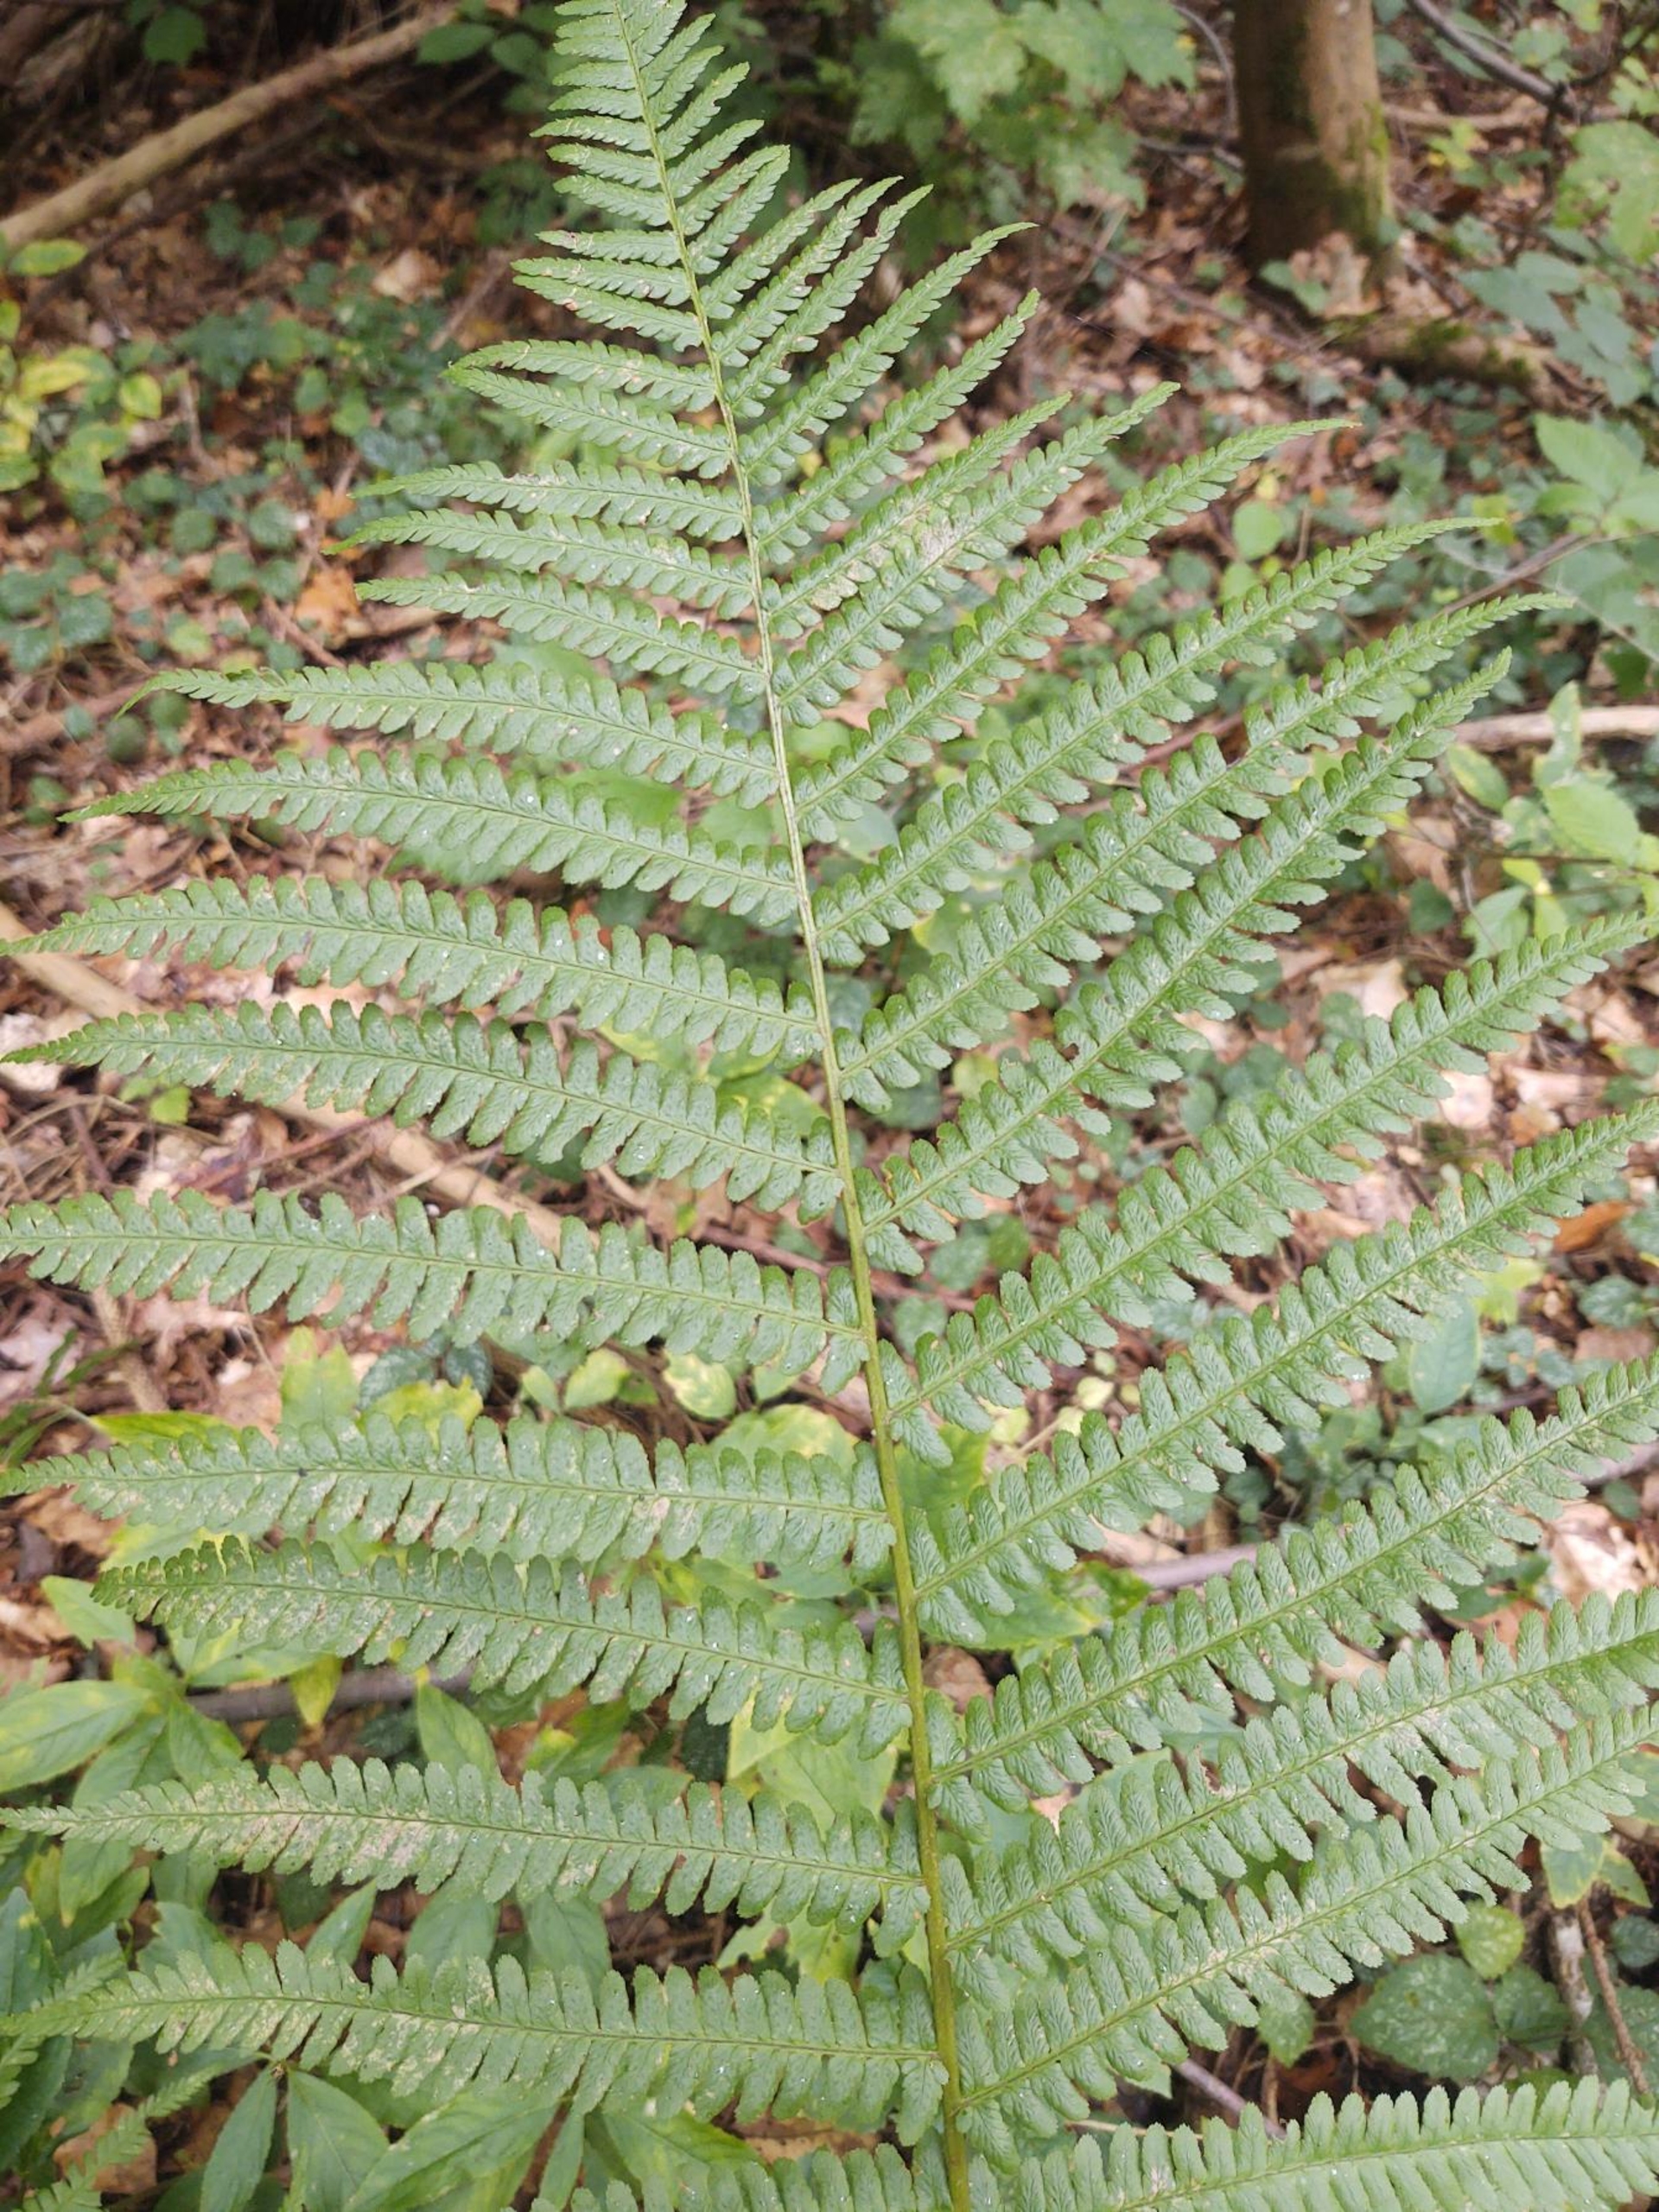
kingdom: Plantae
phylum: Tracheophyta
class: Polypodiopsida
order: Polypodiales
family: Dryopteridaceae
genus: Dryopteris
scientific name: Dryopteris filix-mas
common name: Almindelig mangeløv
